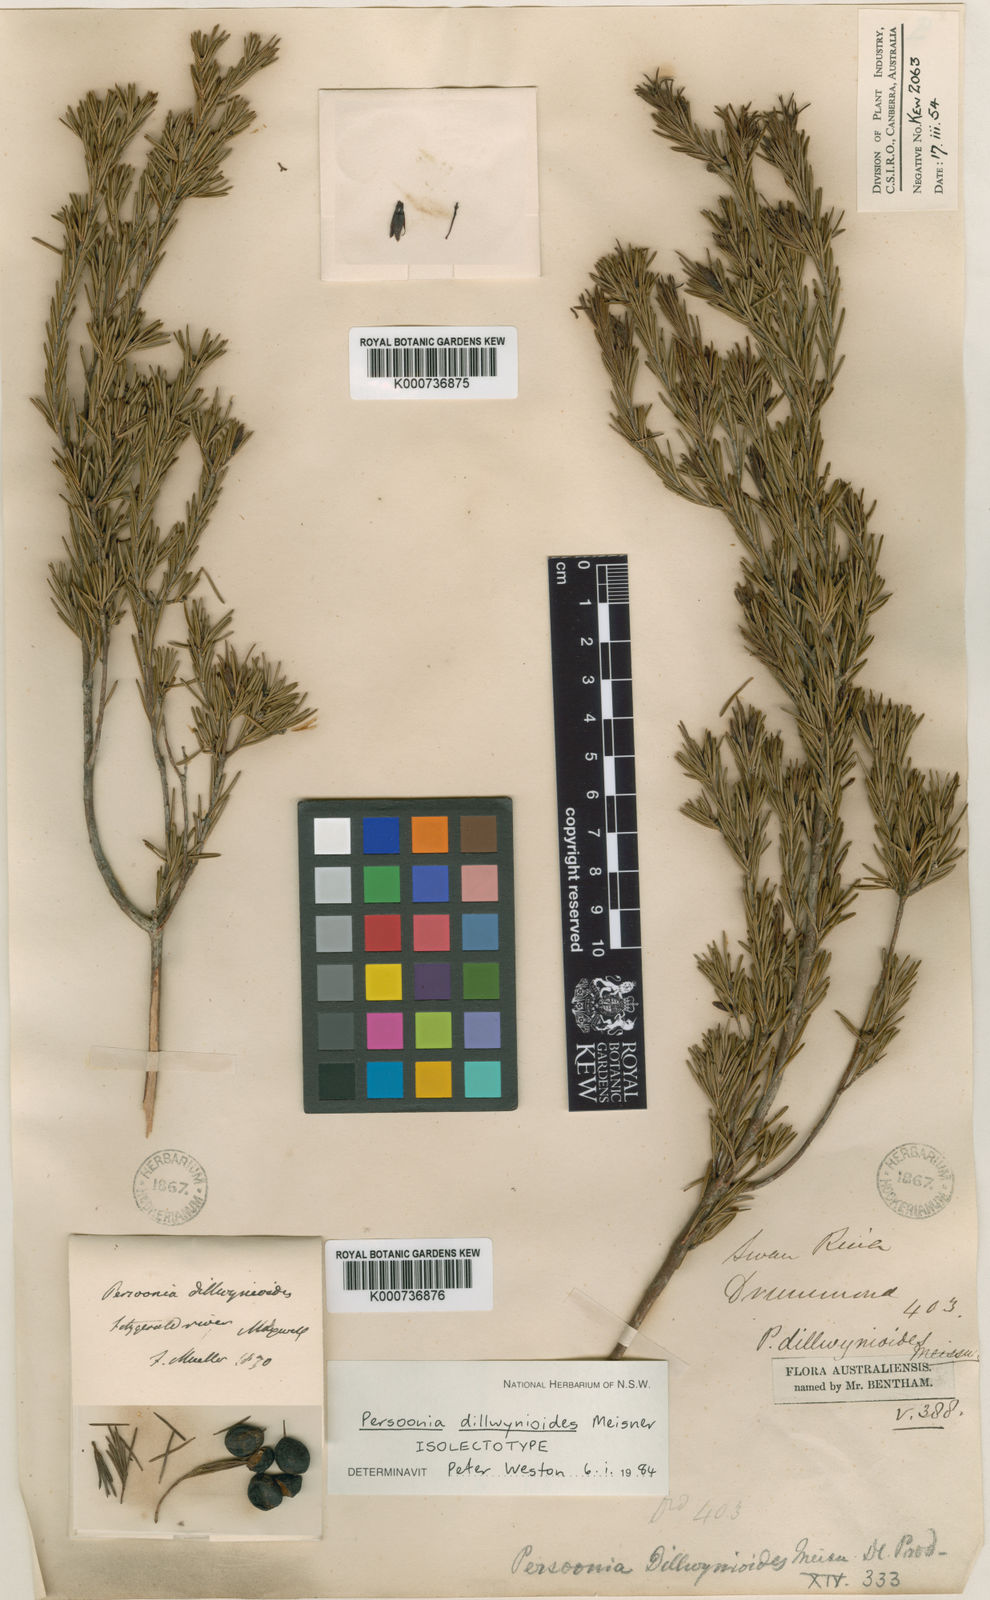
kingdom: Plantae
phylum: Tracheophyta
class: Magnoliopsida
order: Proteales
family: Proteaceae
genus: Persoonia
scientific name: Persoonia dillwynioides
